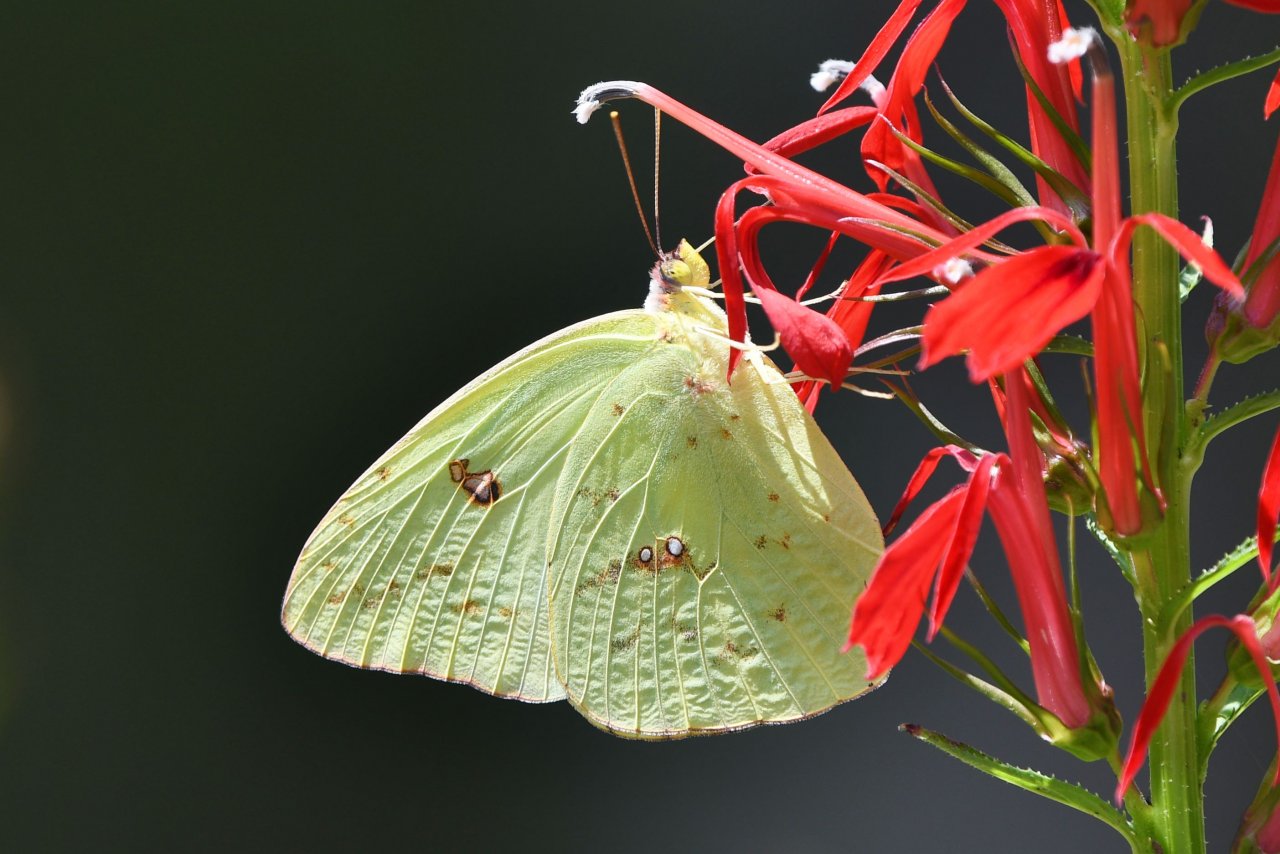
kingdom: Animalia
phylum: Arthropoda
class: Insecta
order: Lepidoptera
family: Pieridae
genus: Phoebis
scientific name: Phoebis sennae
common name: Cloudless Sulphur
